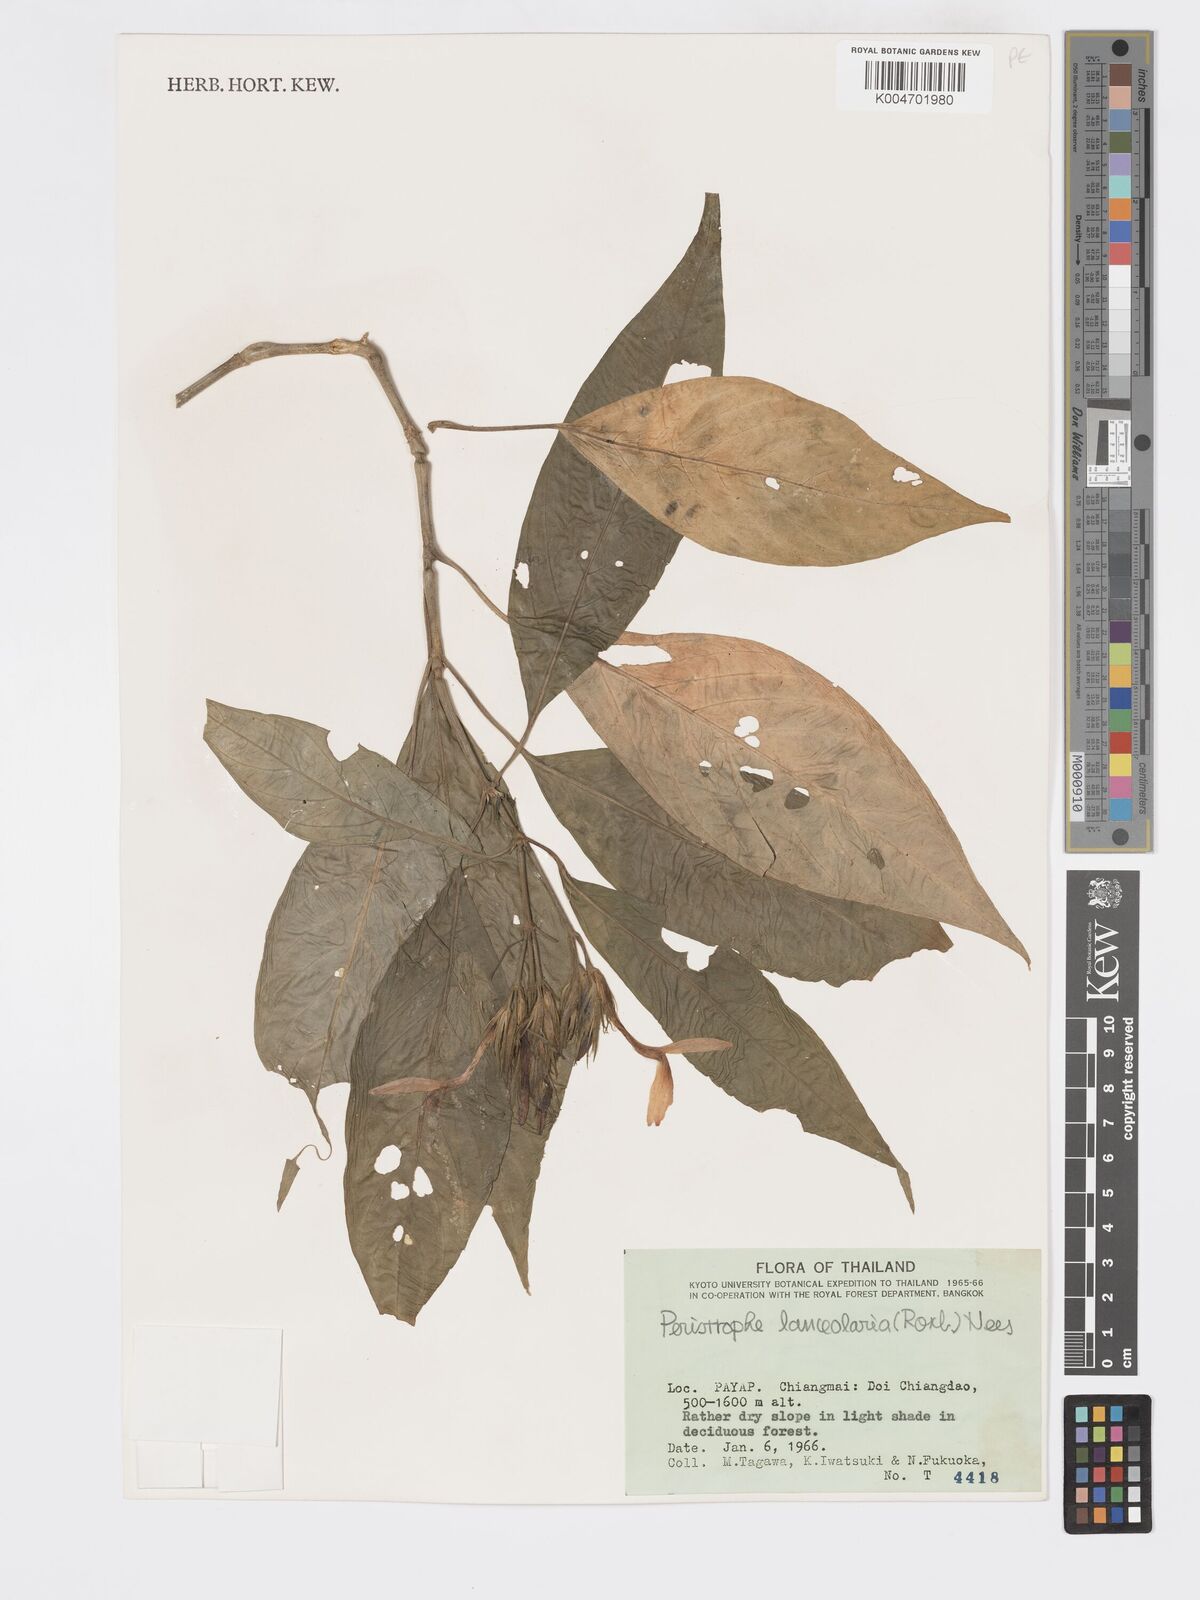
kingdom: Plantae
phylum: Tracheophyta
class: Magnoliopsida
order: Lamiales
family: Acanthaceae
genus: Dicliptera
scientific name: Dicliptera lanceolaria
